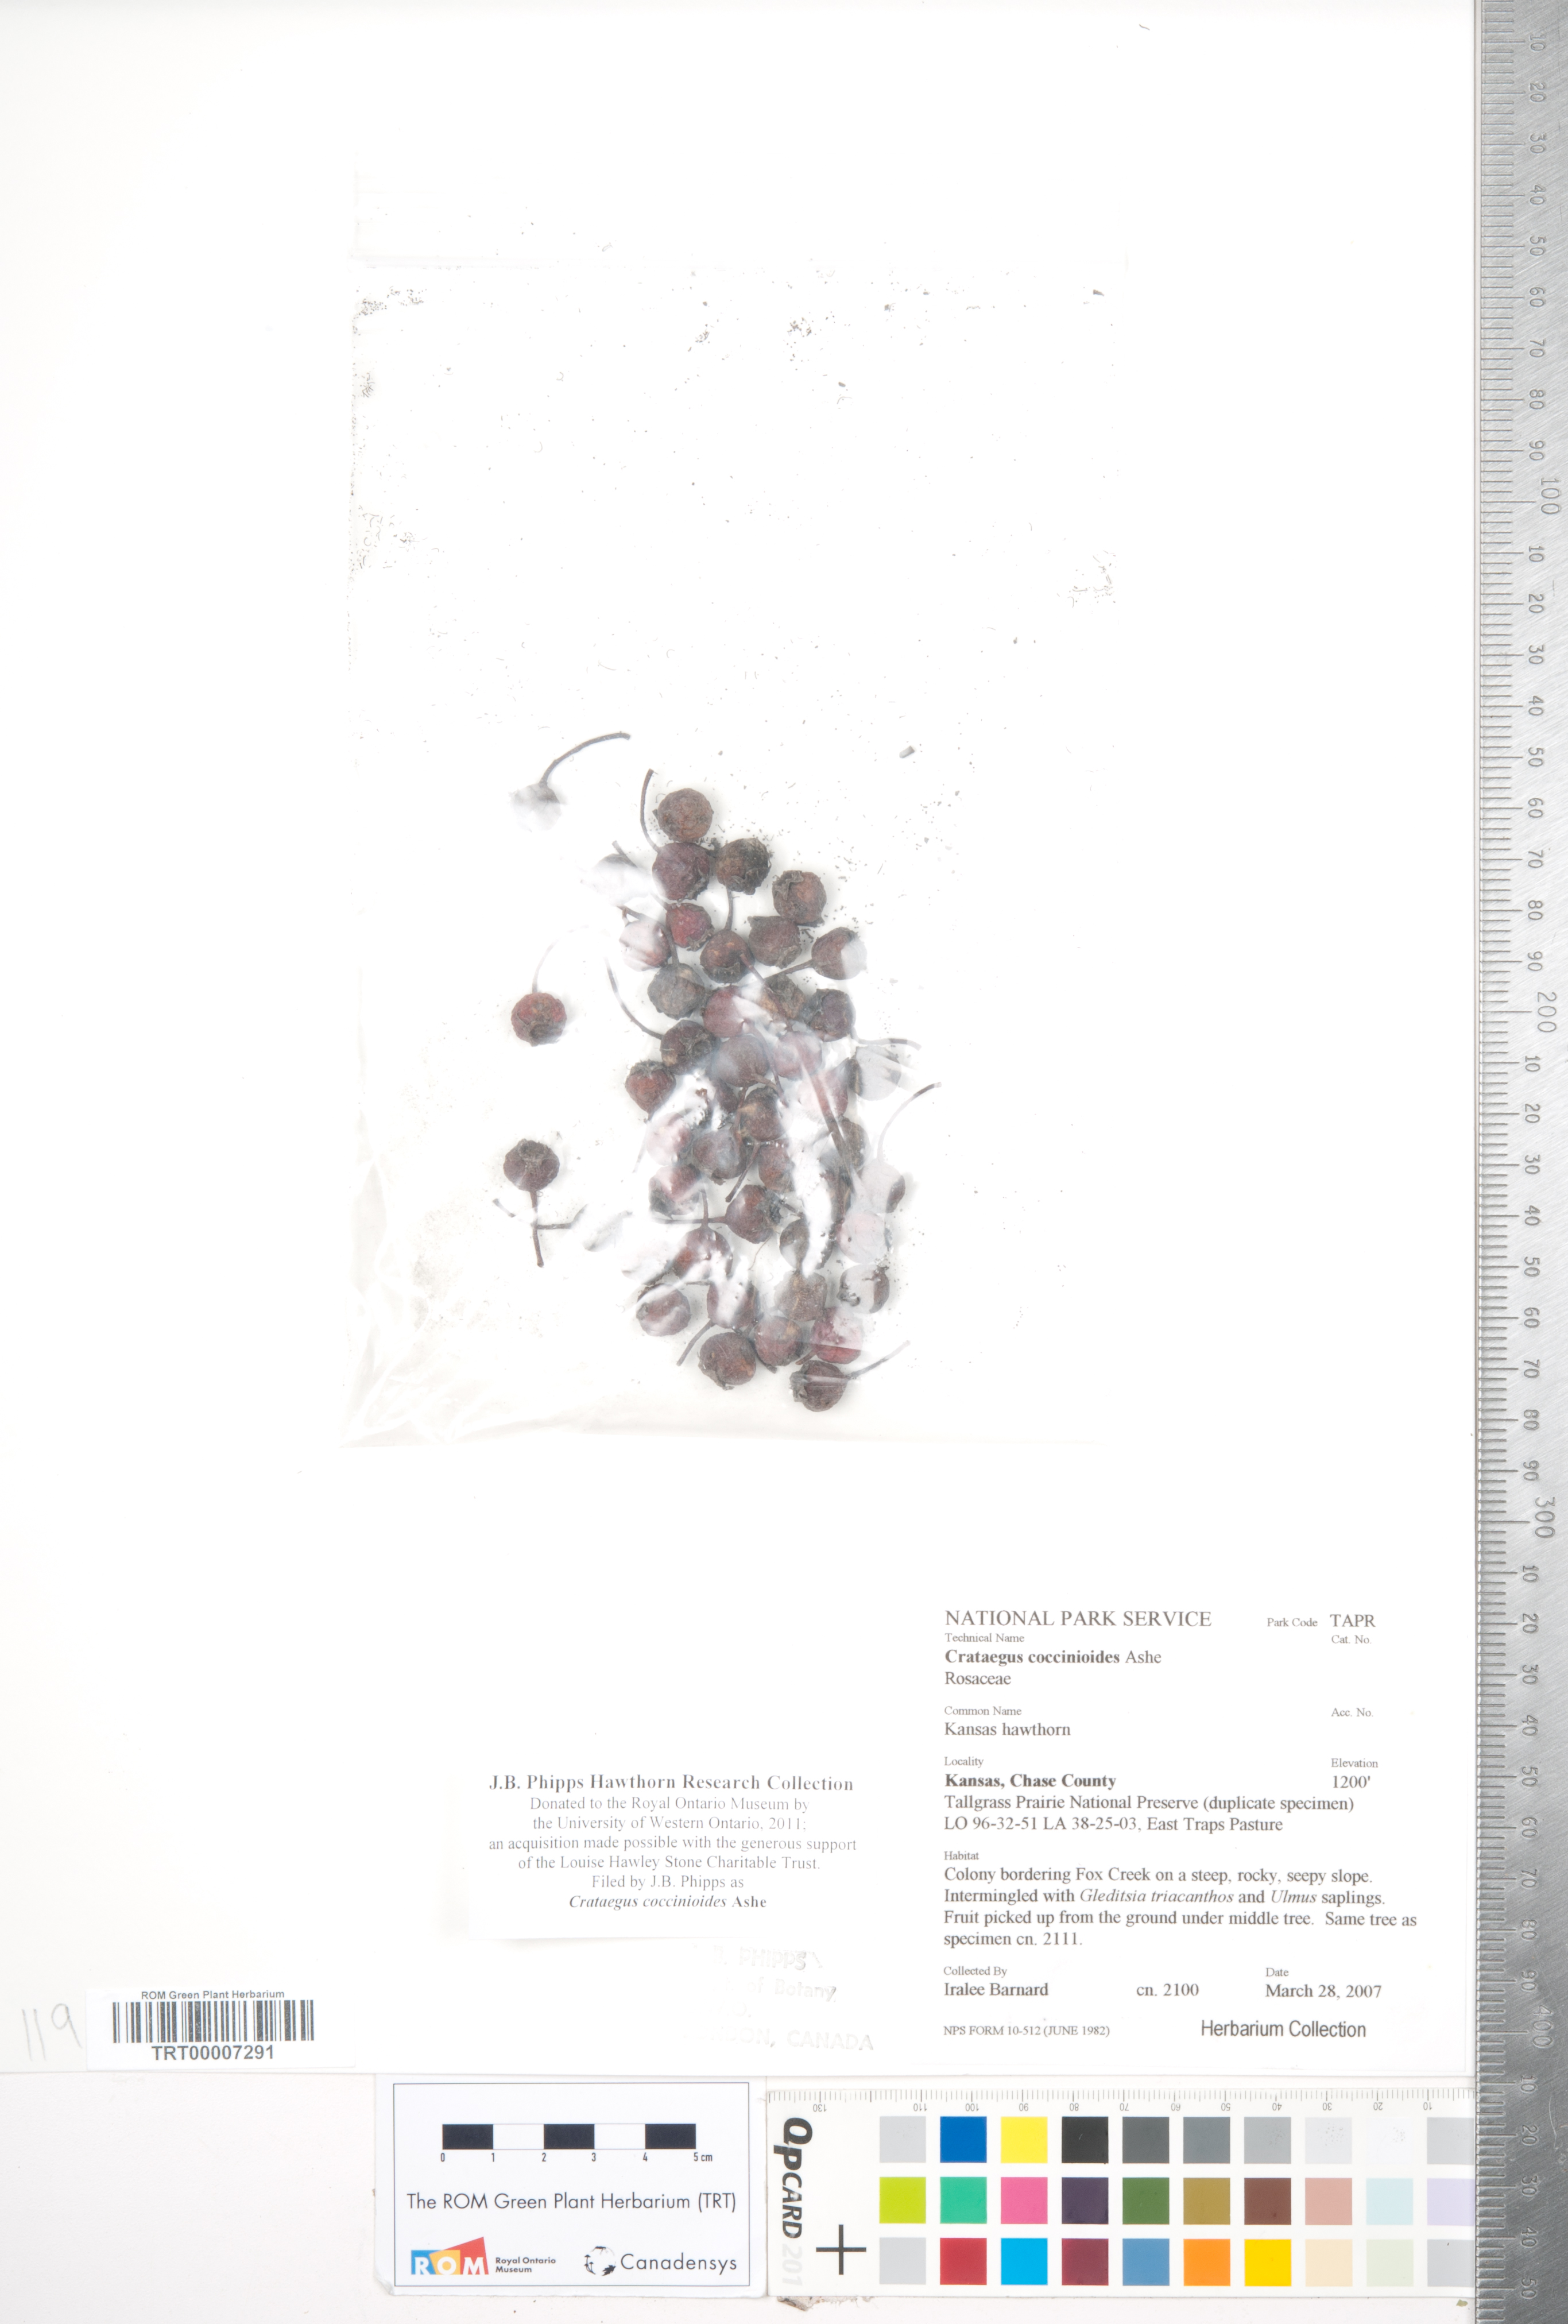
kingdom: Plantae
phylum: Tracheophyta
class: Magnoliopsida
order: Rosales
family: Rosaceae
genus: Crataegus
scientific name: Crataegus coccinioides
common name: Large-flowered cockspurthorn
